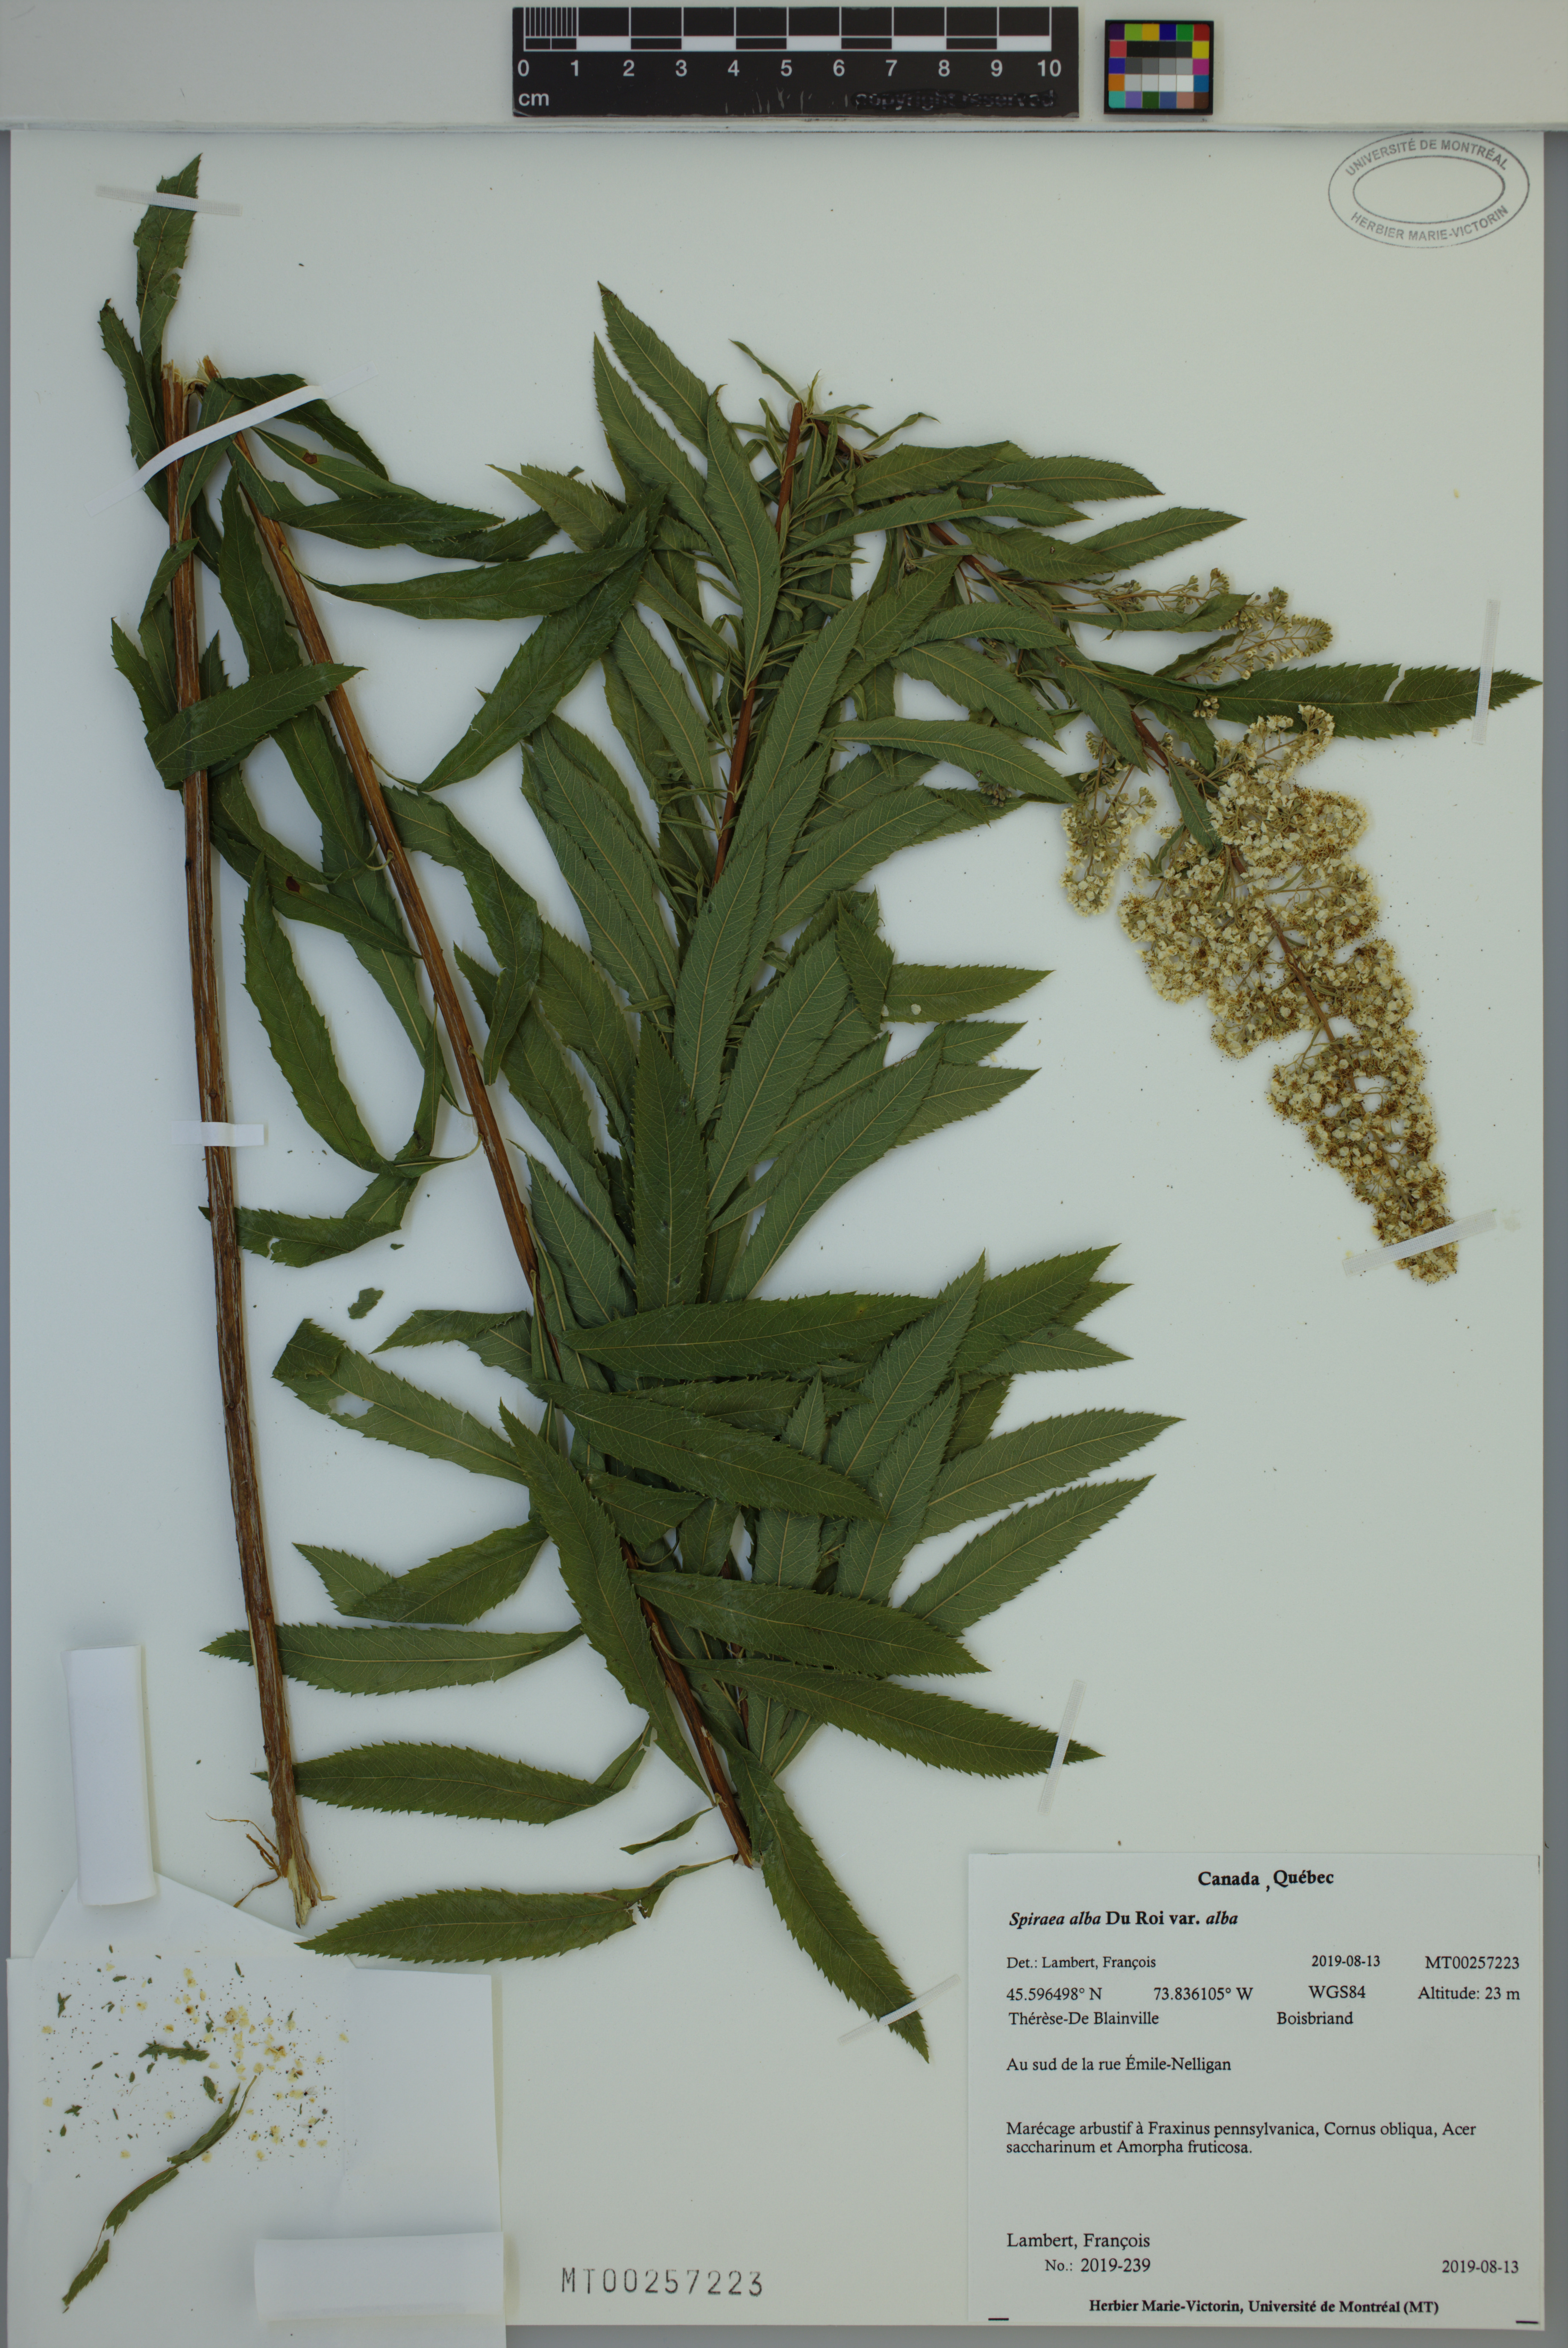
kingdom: Plantae
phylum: Tracheophyta
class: Magnoliopsida
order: Rosales
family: Rosaceae
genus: Spiraea
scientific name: Spiraea alba
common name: Pale bridewort
